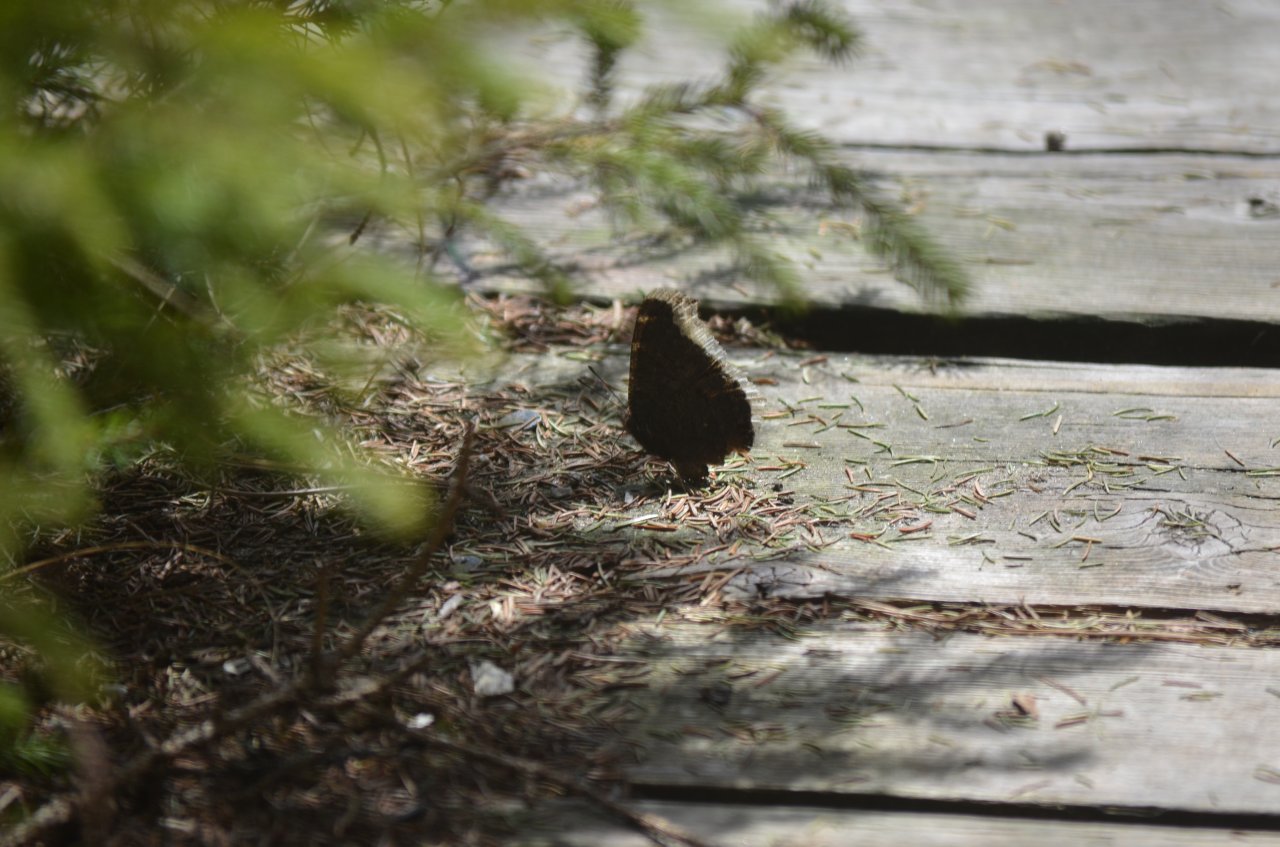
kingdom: Animalia
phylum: Arthropoda
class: Insecta
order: Lepidoptera
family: Nymphalidae
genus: Nymphalis
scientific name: Nymphalis antiopa
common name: Mourning Cloak
